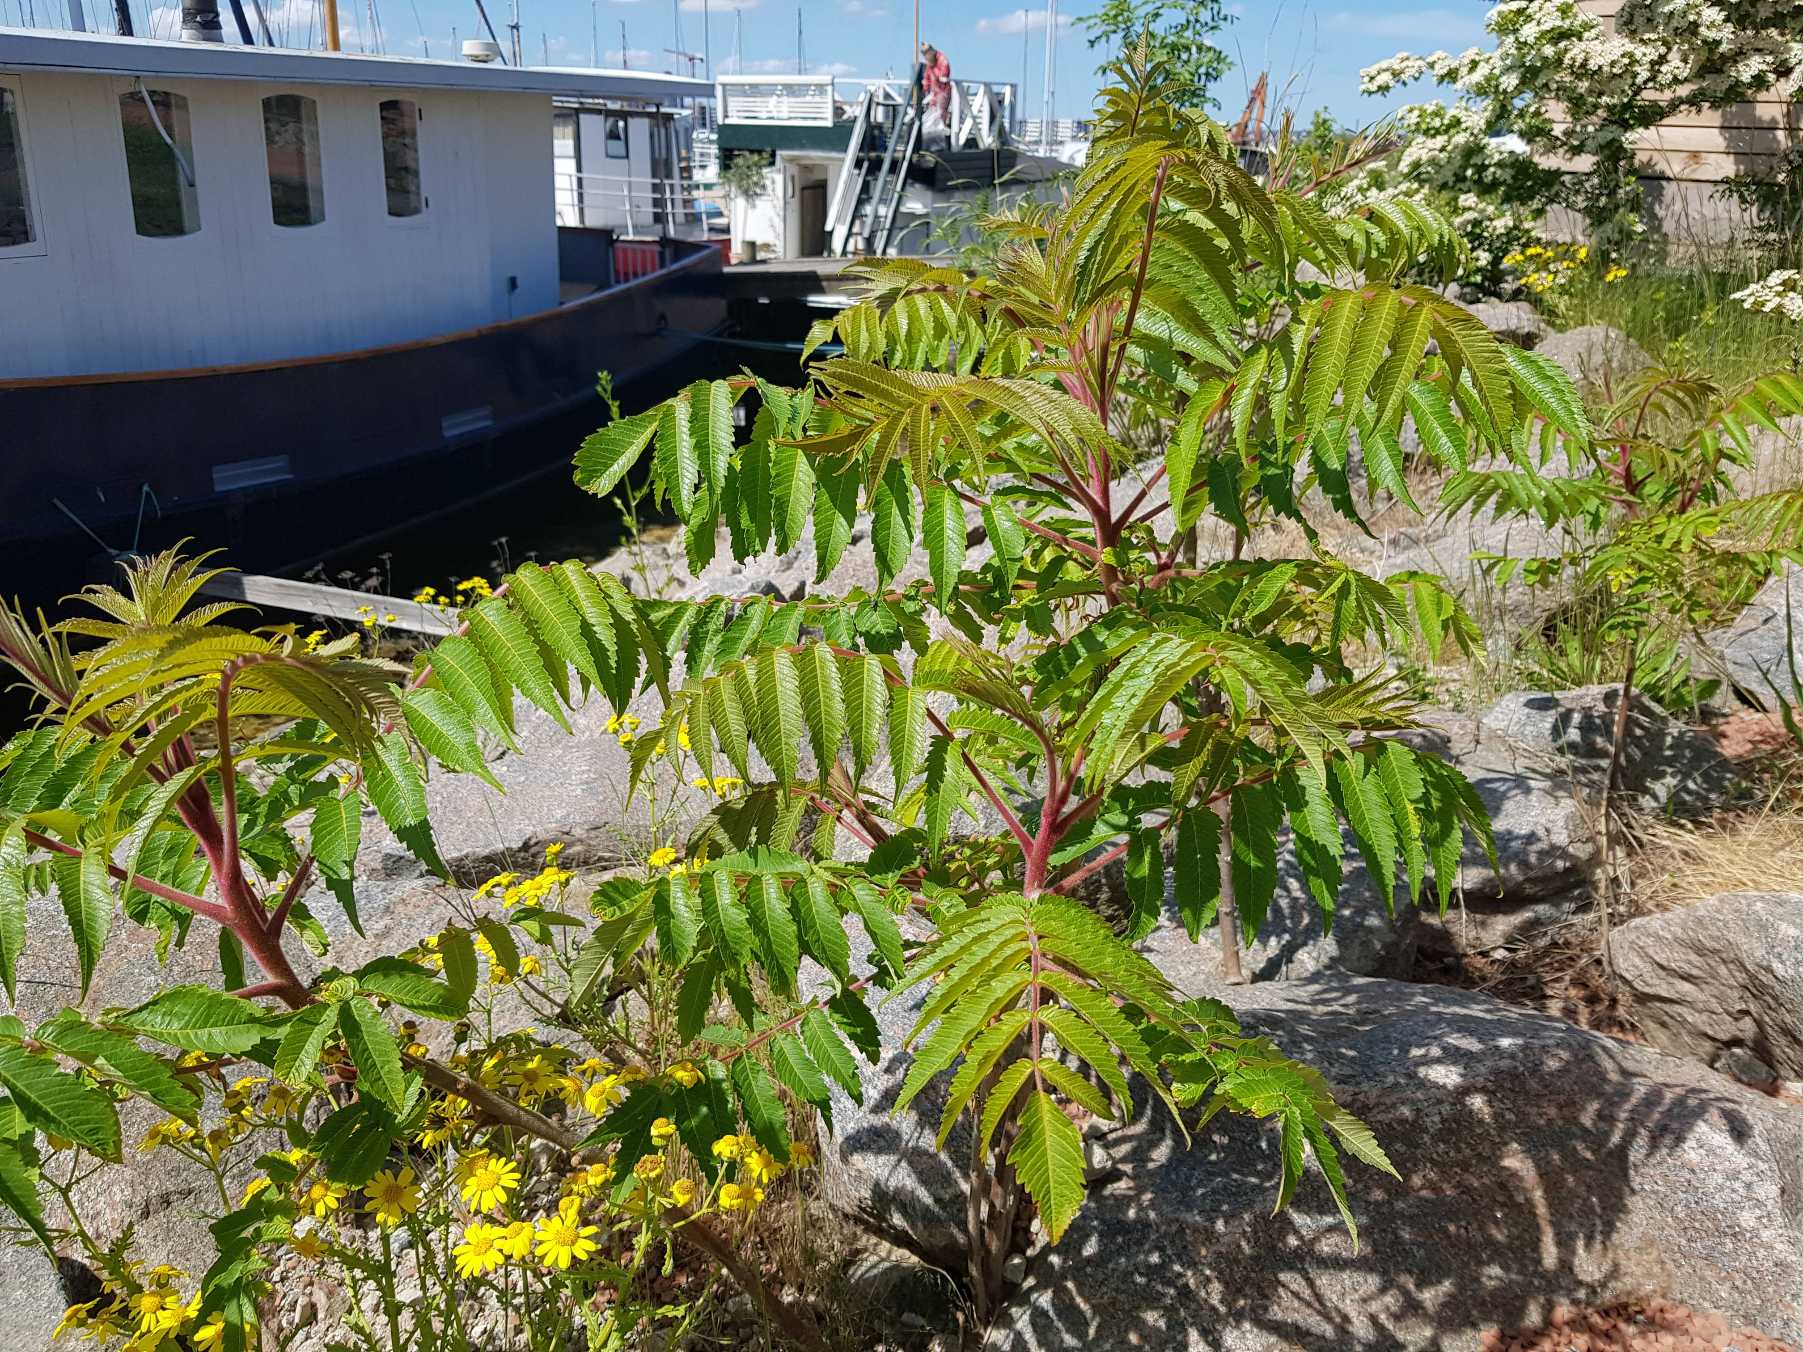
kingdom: Plantae
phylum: Tracheophyta
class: Magnoliopsida
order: Sapindales
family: Anacardiaceae
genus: Rhus
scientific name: Rhus typhina
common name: Hjortetaktræ
